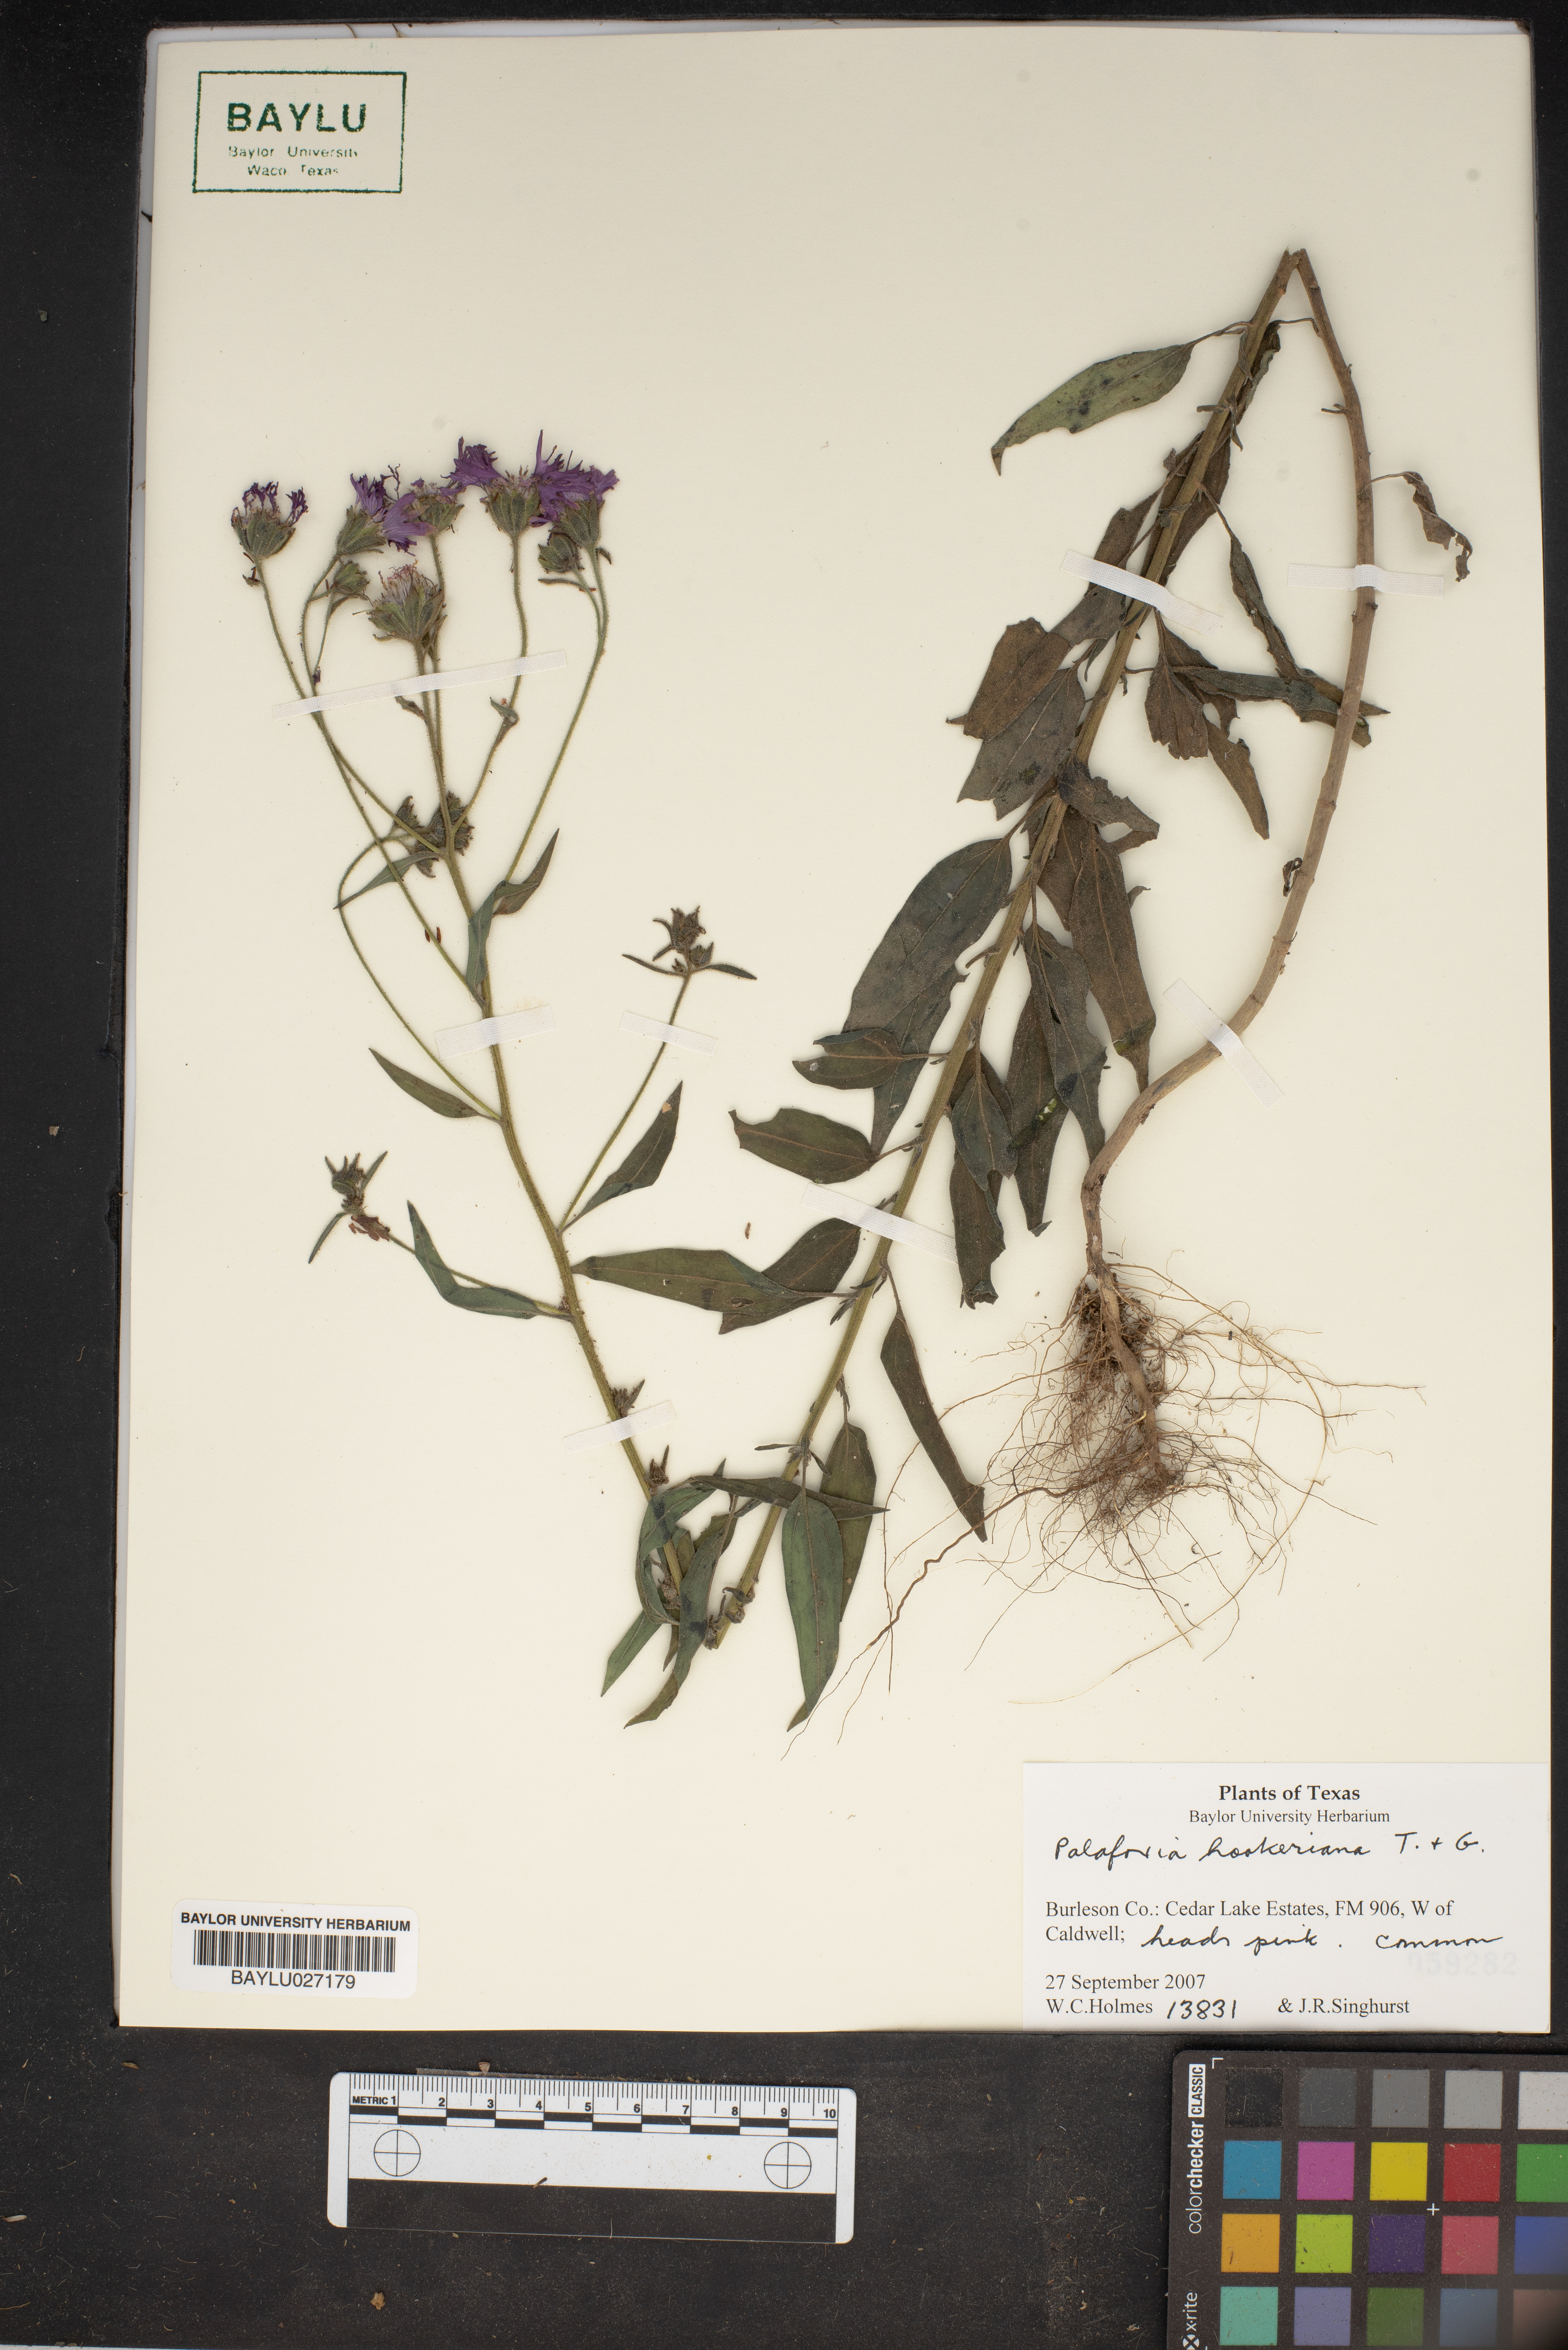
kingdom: Plantae
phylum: Tracheophyta
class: Magnoliopsida
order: Asterales
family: Asteraceae
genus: Palafoxia
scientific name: Palafoxia hookeriana
